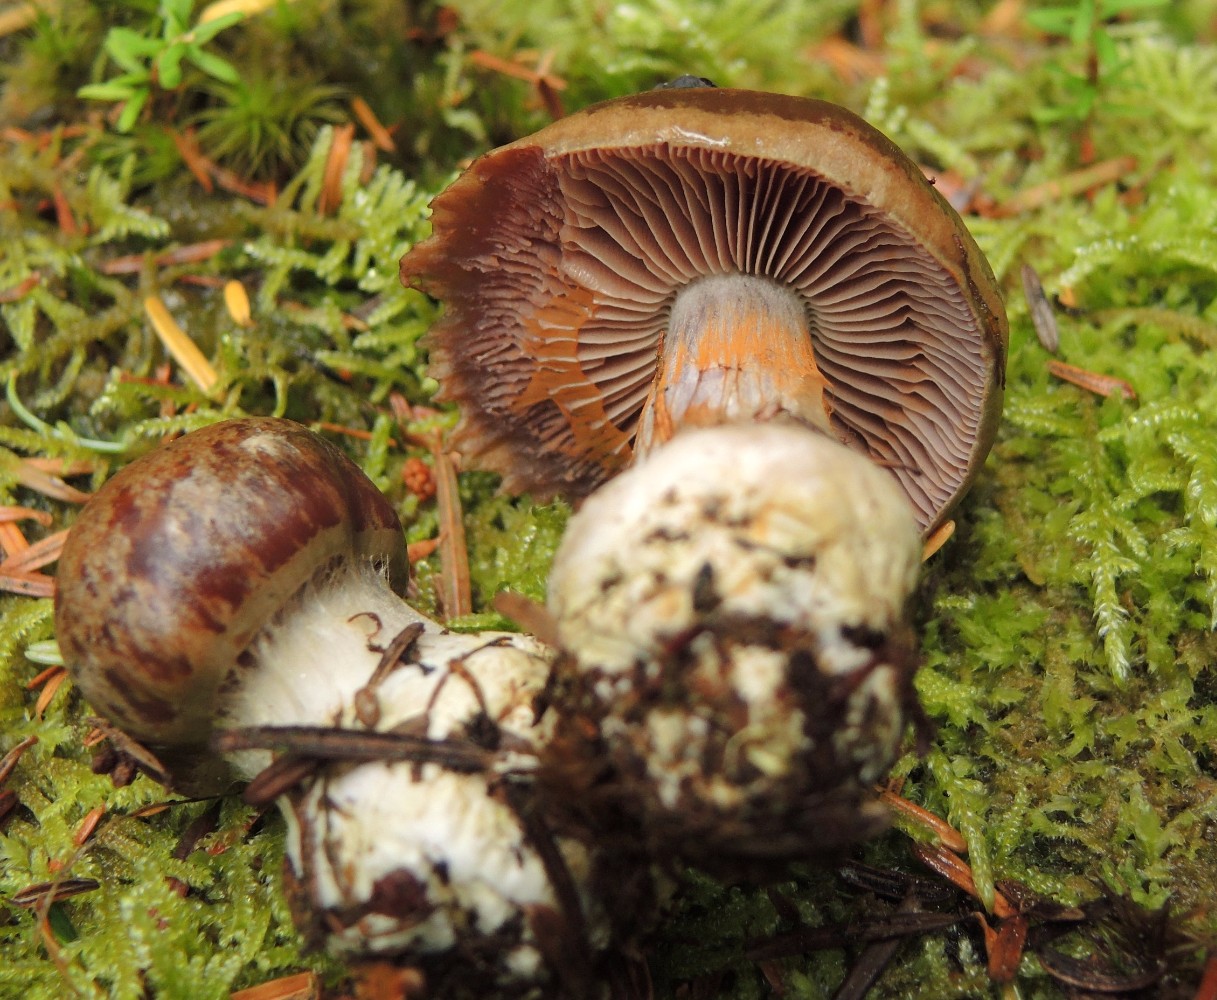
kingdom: Fungi
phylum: Basidiomycota
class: Agaricomycetes
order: Agaricales
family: Cortinariaceae
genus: Thaxterogaster
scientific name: Thaxterogaster sphagnophilus
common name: vandplettet slørhat
